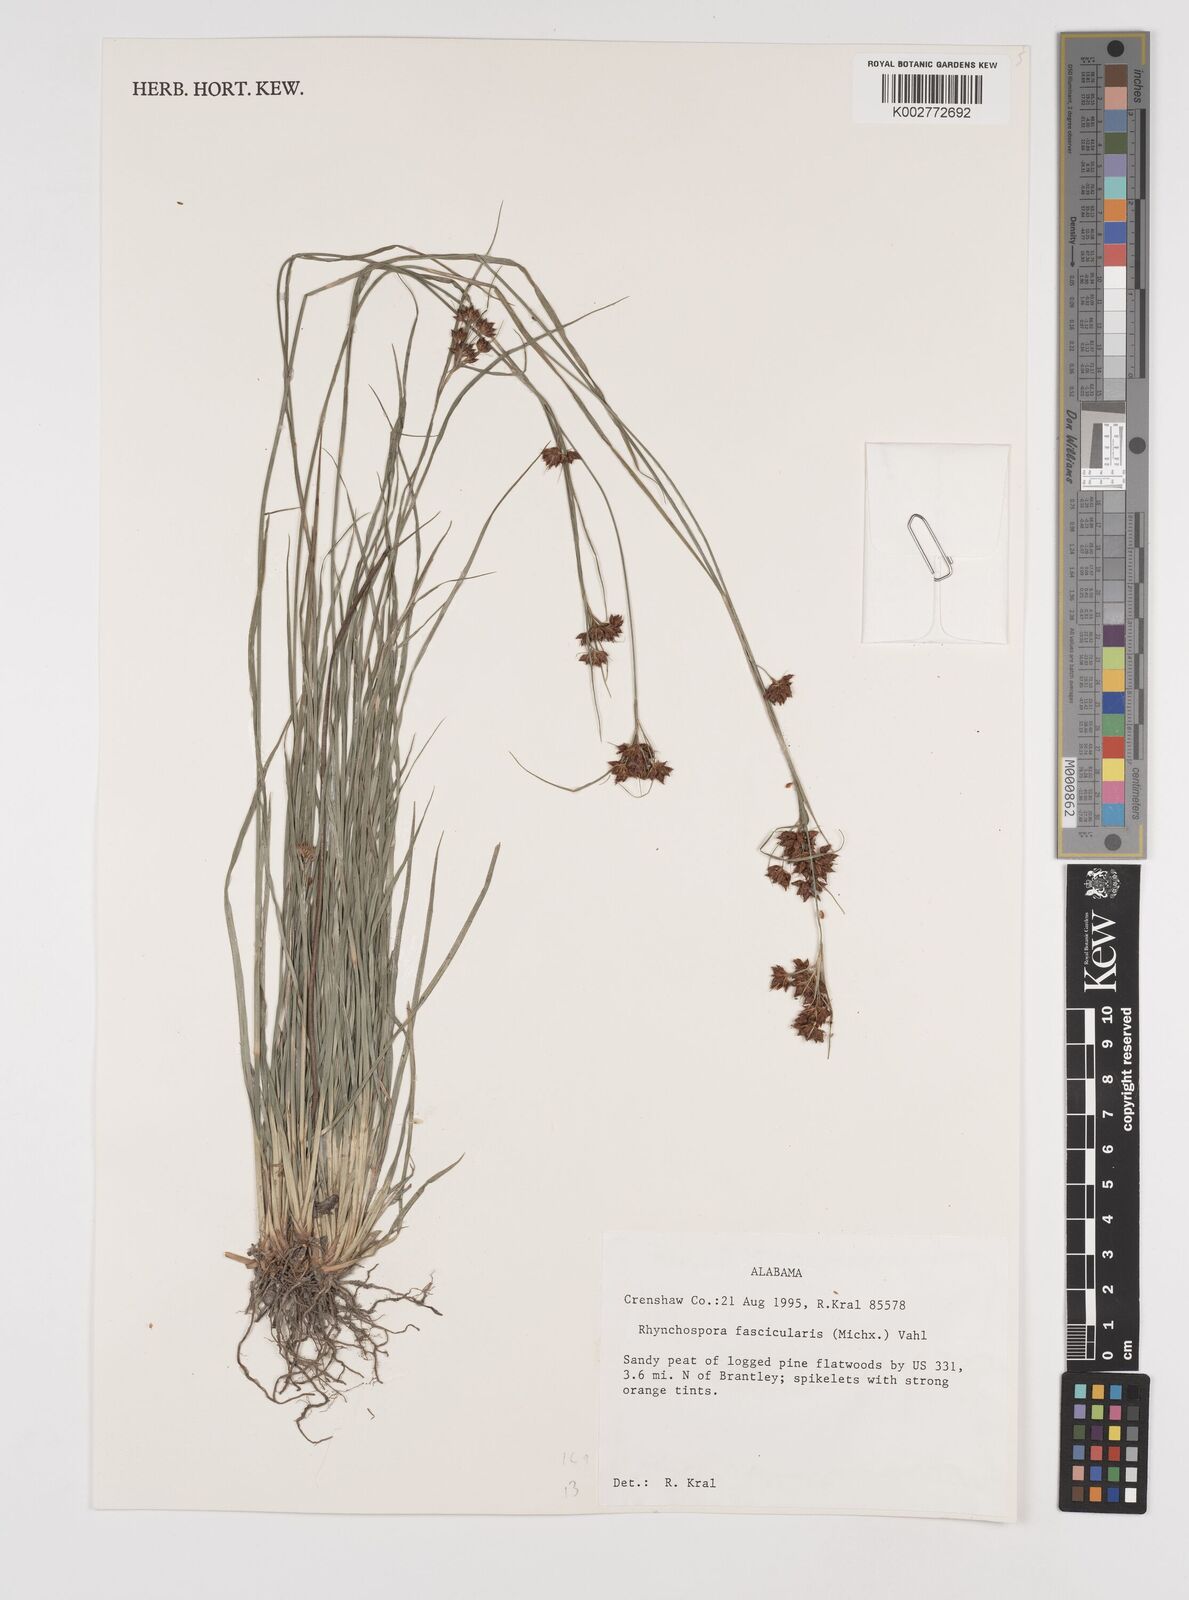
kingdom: Plantae
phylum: Tracheophyta
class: Liliopsida
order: Poales
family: Cyperaceae
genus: Rhynchospora
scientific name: Rhynchospora fascicularis
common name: Fascicled beak sedge
